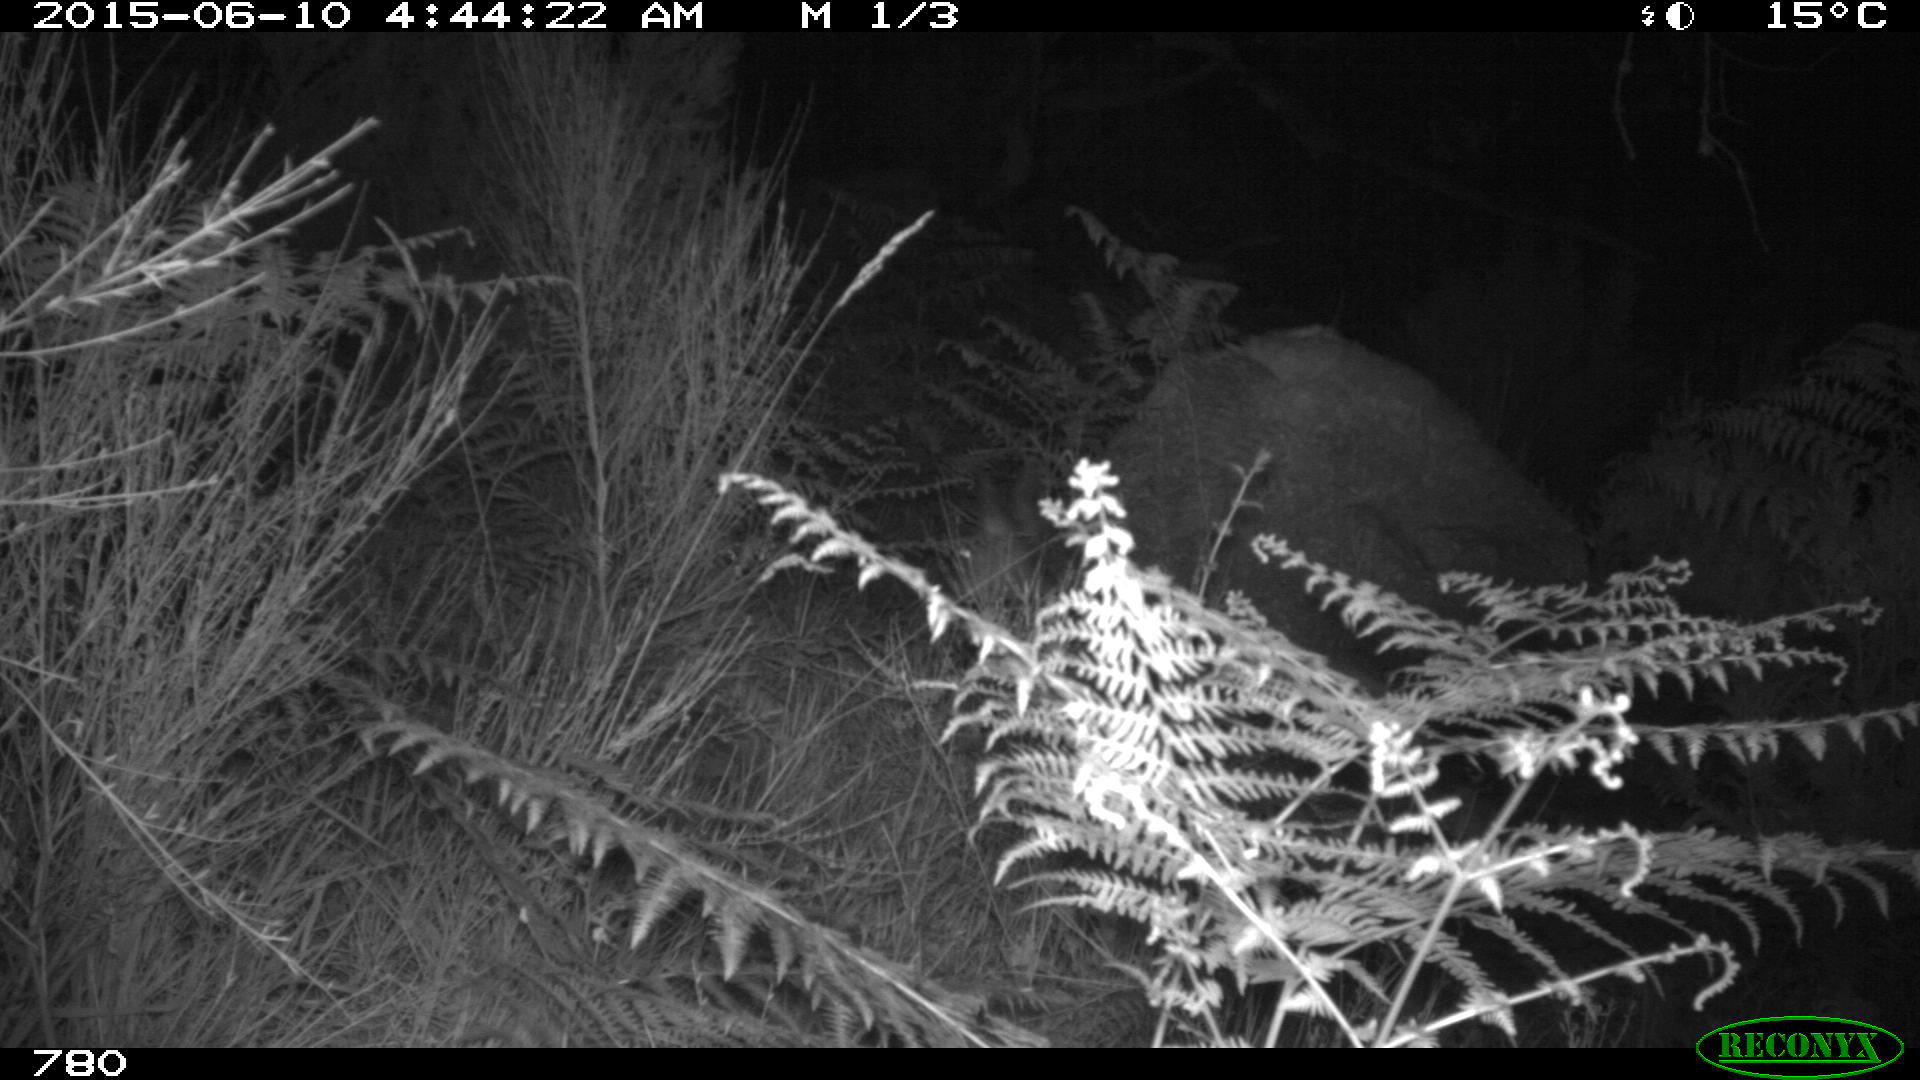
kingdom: Animalia
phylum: Chordata
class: Mammalia
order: Artiodactyla
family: Cervidae
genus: Capreolus
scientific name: Capreolus capreolus
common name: Western roe deer
